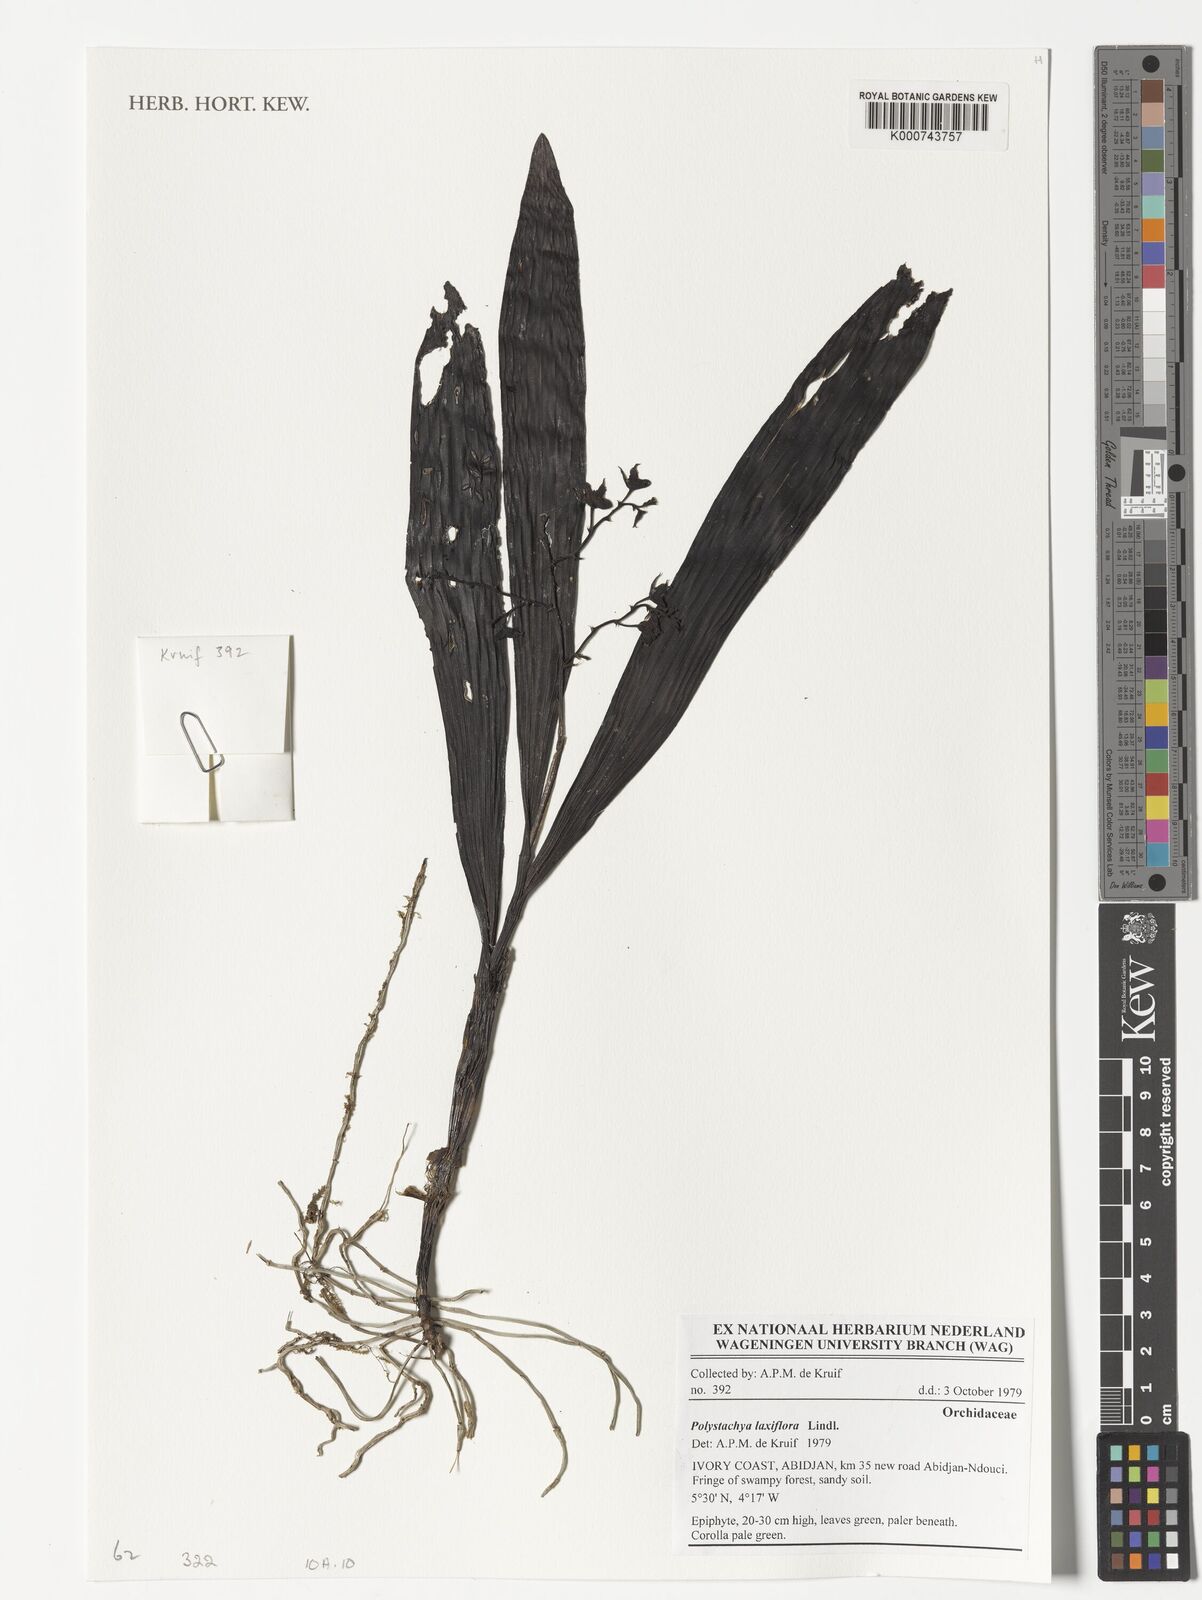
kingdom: Plantae
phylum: Tracheophyta
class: Liliopsida
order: Asparagales
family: Orchidaceae
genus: Polystachya
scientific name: Polystachya laxiflora
